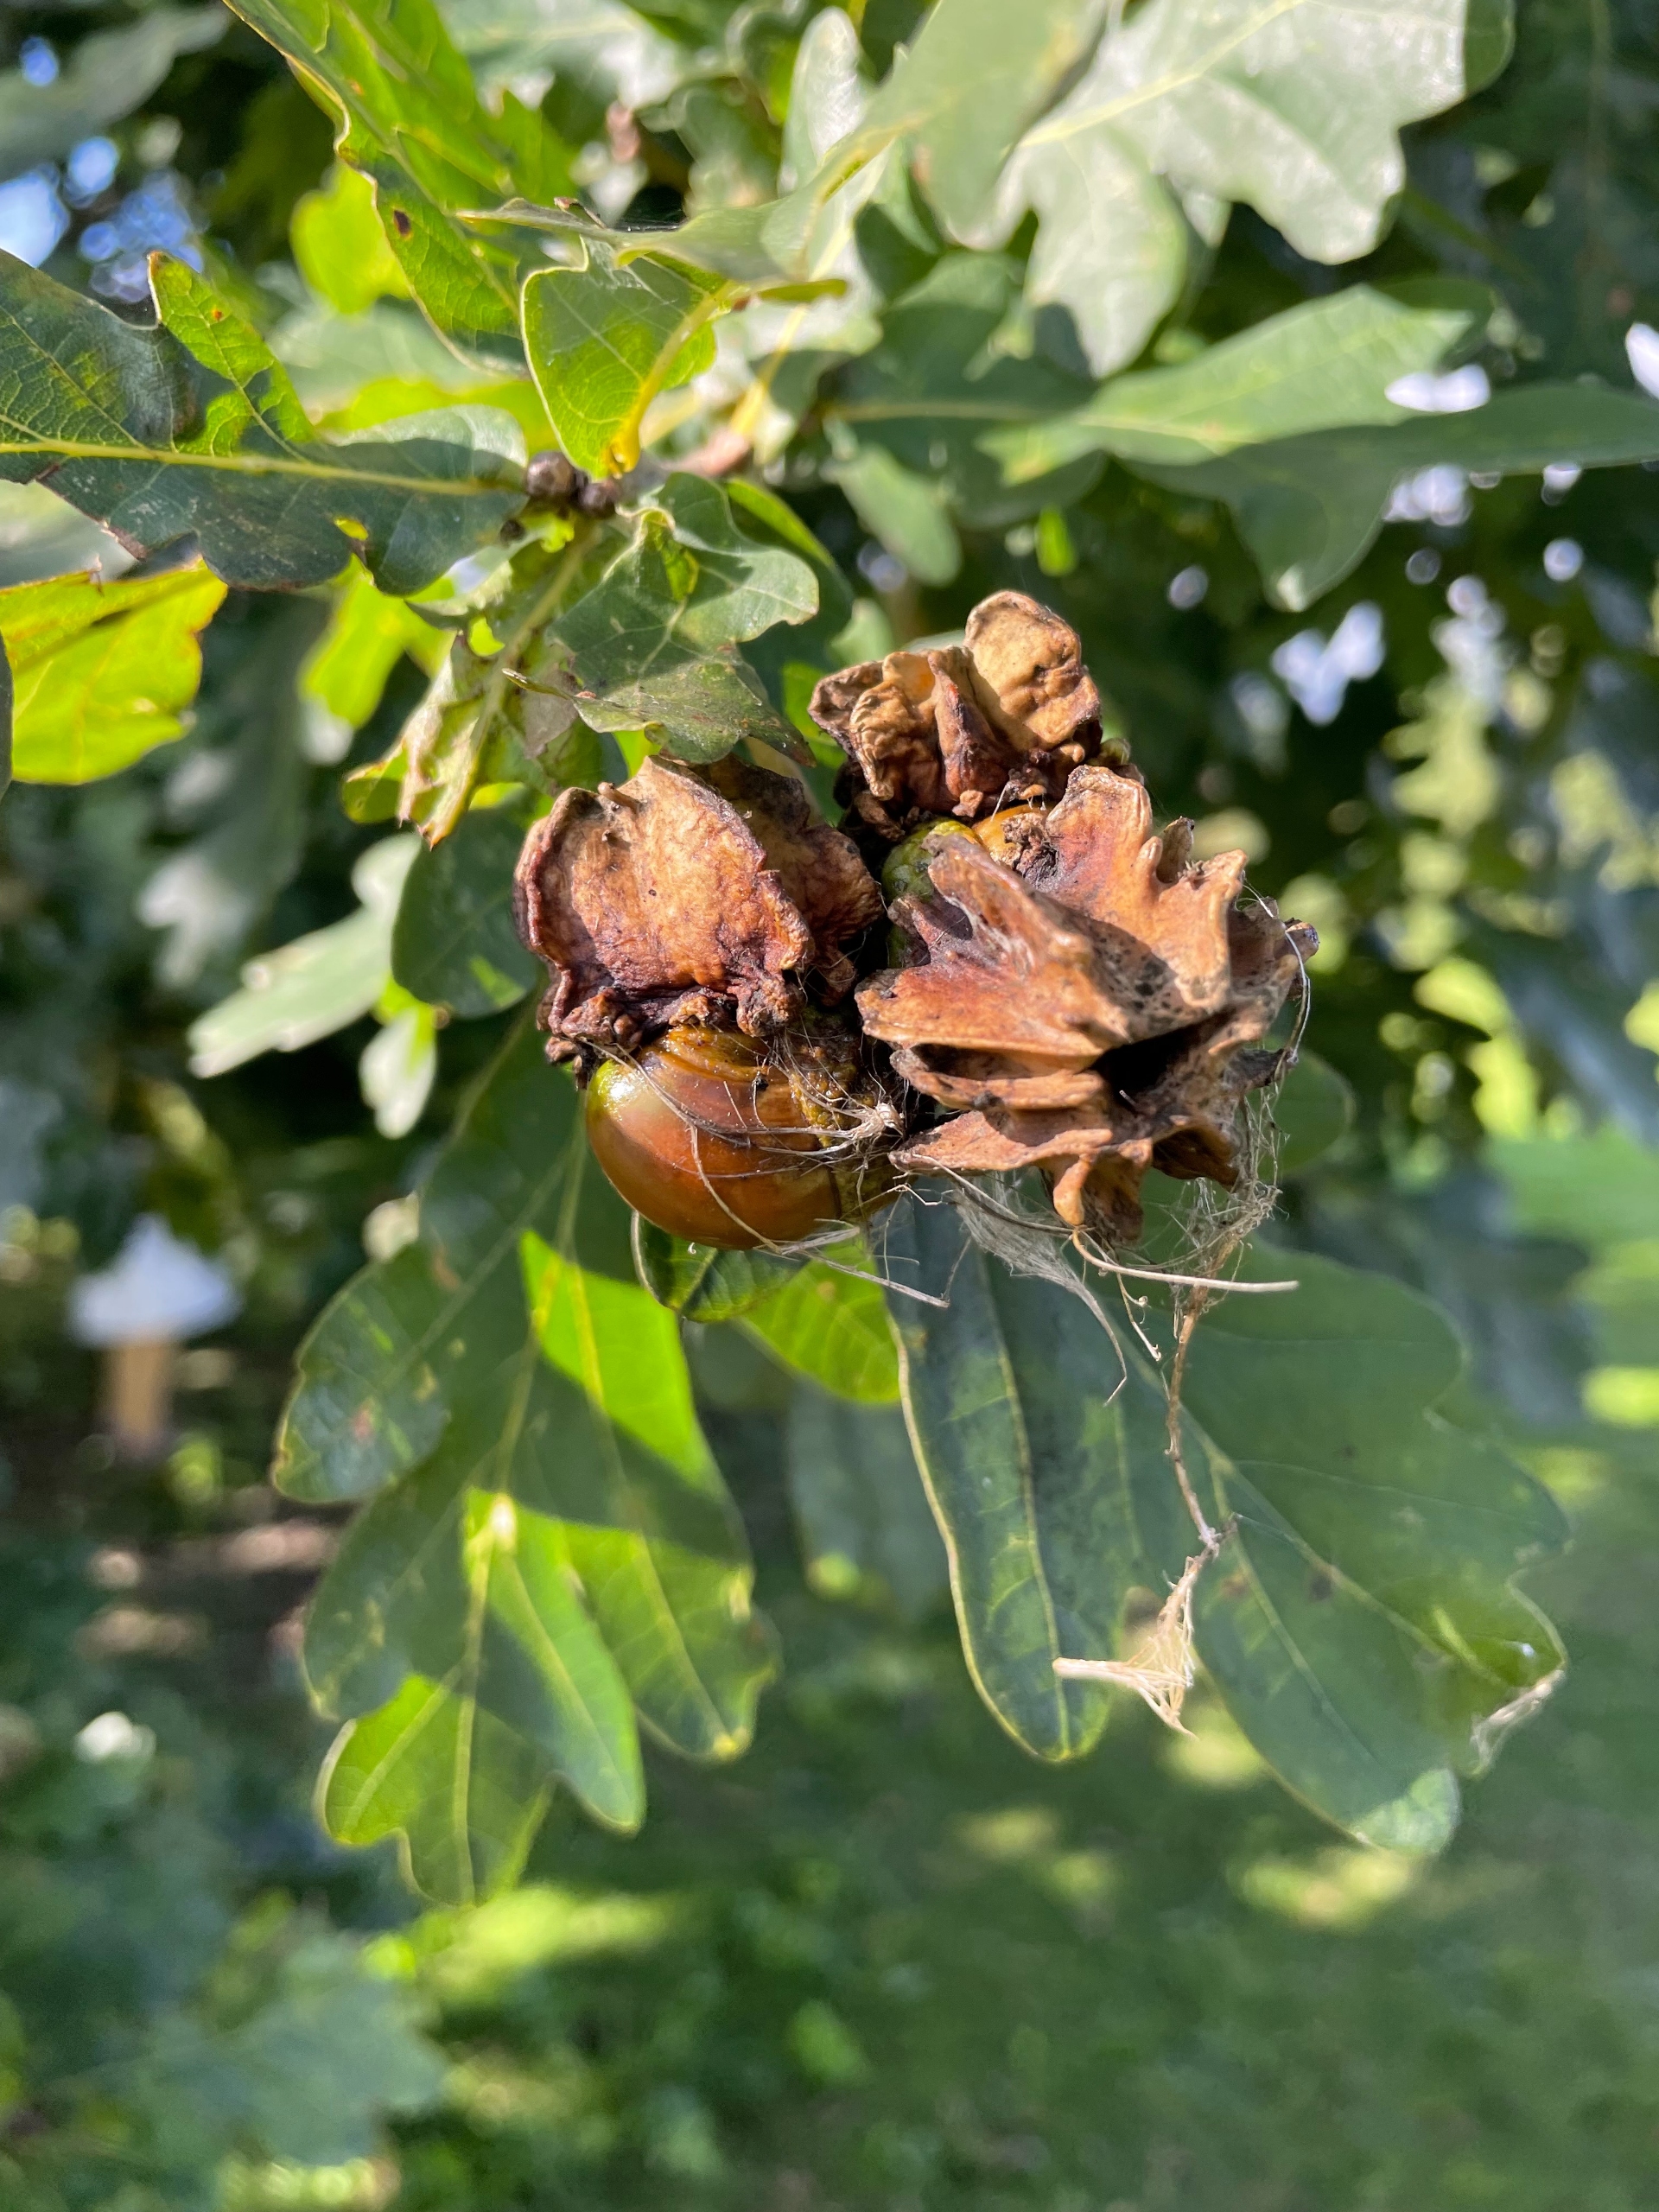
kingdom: Animalia
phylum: Arthropoda
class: Insecta
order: Hymenoptera
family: Cynipidae
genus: Andricus
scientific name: Andricus quercuscalicis
